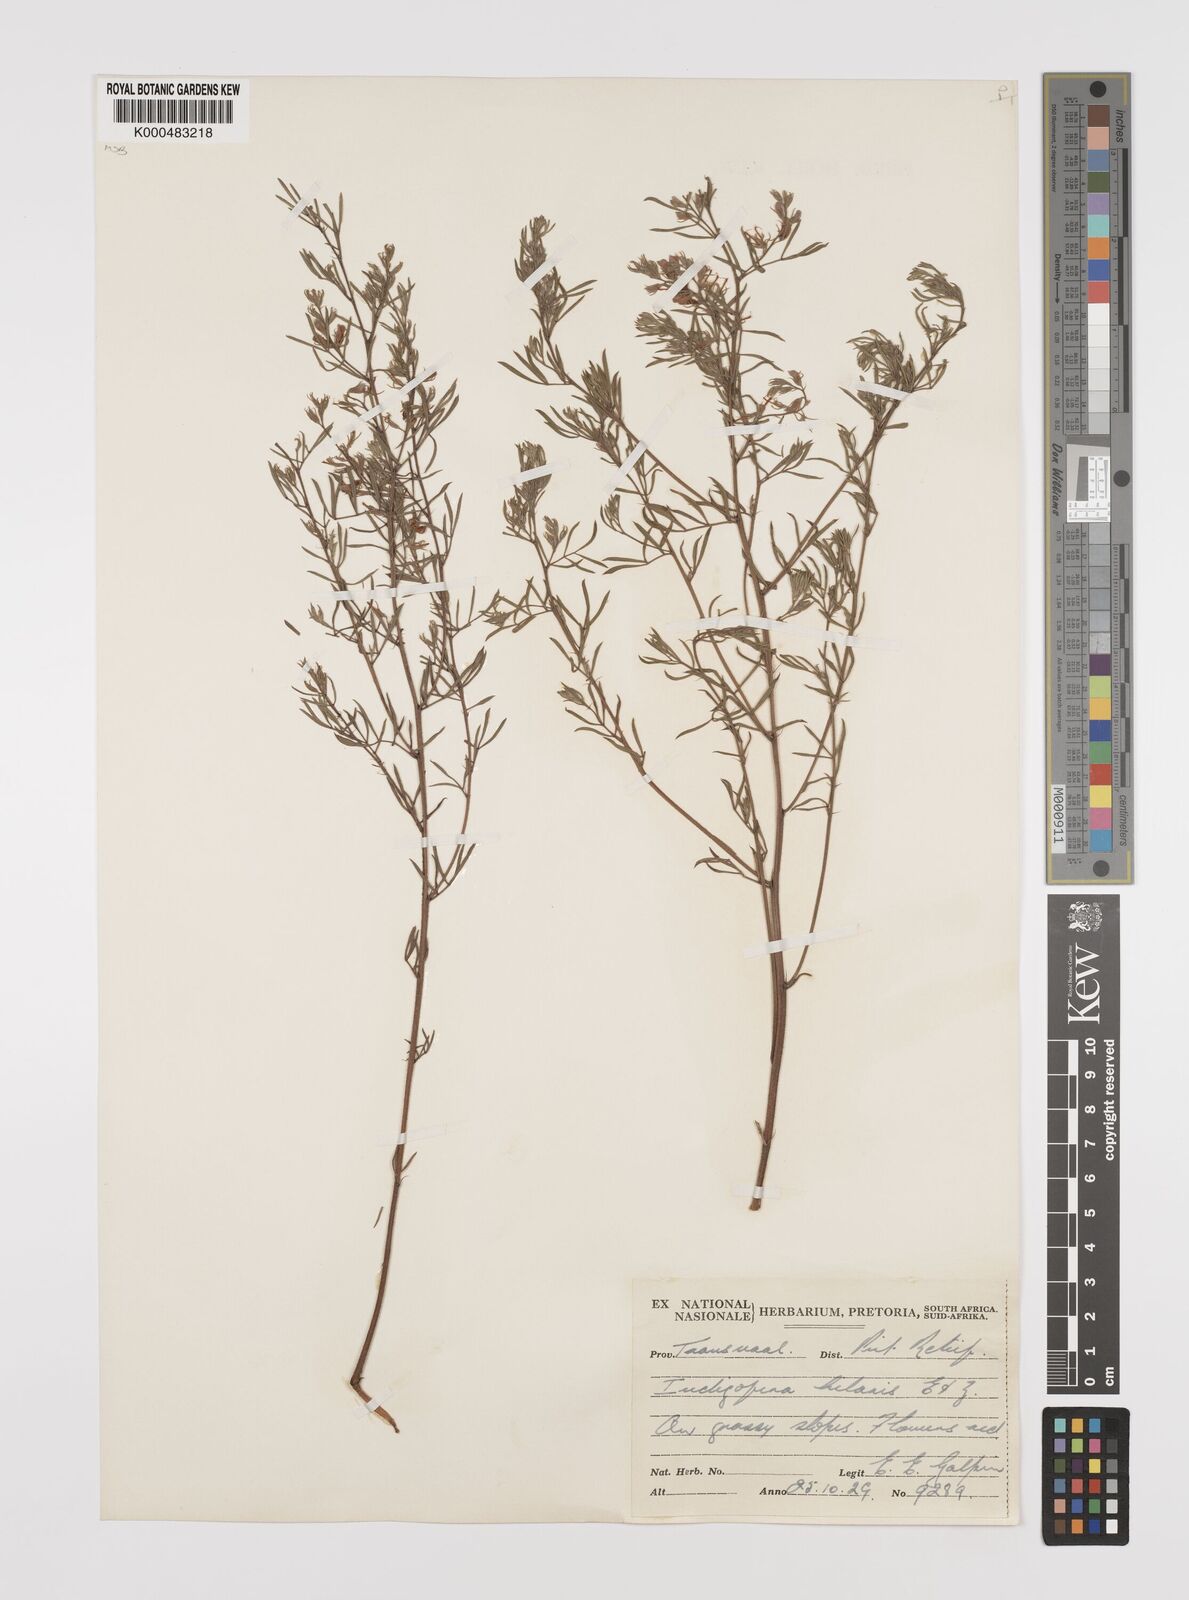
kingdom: Plantae
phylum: Tracheophyta
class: Magnoliopsida
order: Fabales
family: Fabaceae
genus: Indigofera
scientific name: Indigofera hybrida
